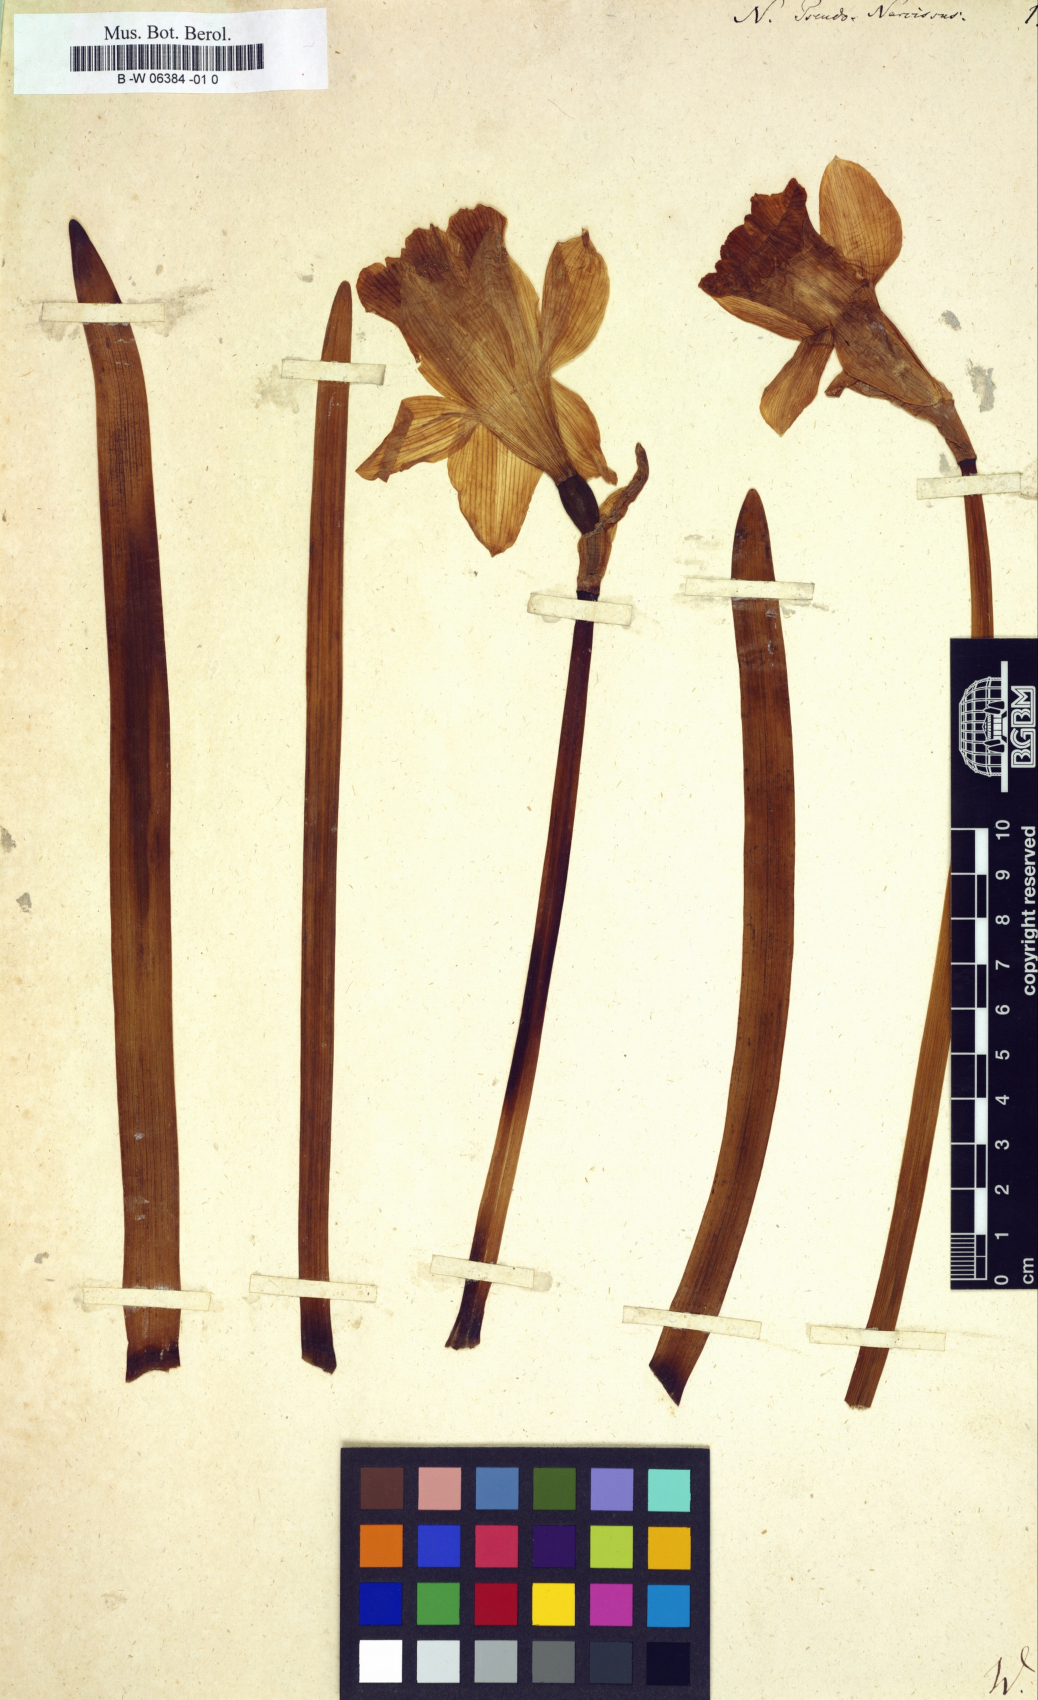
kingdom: Plantae
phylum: Tracheophyta
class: Liliopsida
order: Asparagales
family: Amaryllidaceae
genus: Narcissus
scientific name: Narcissus pseudonarcissus
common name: Daffodil
